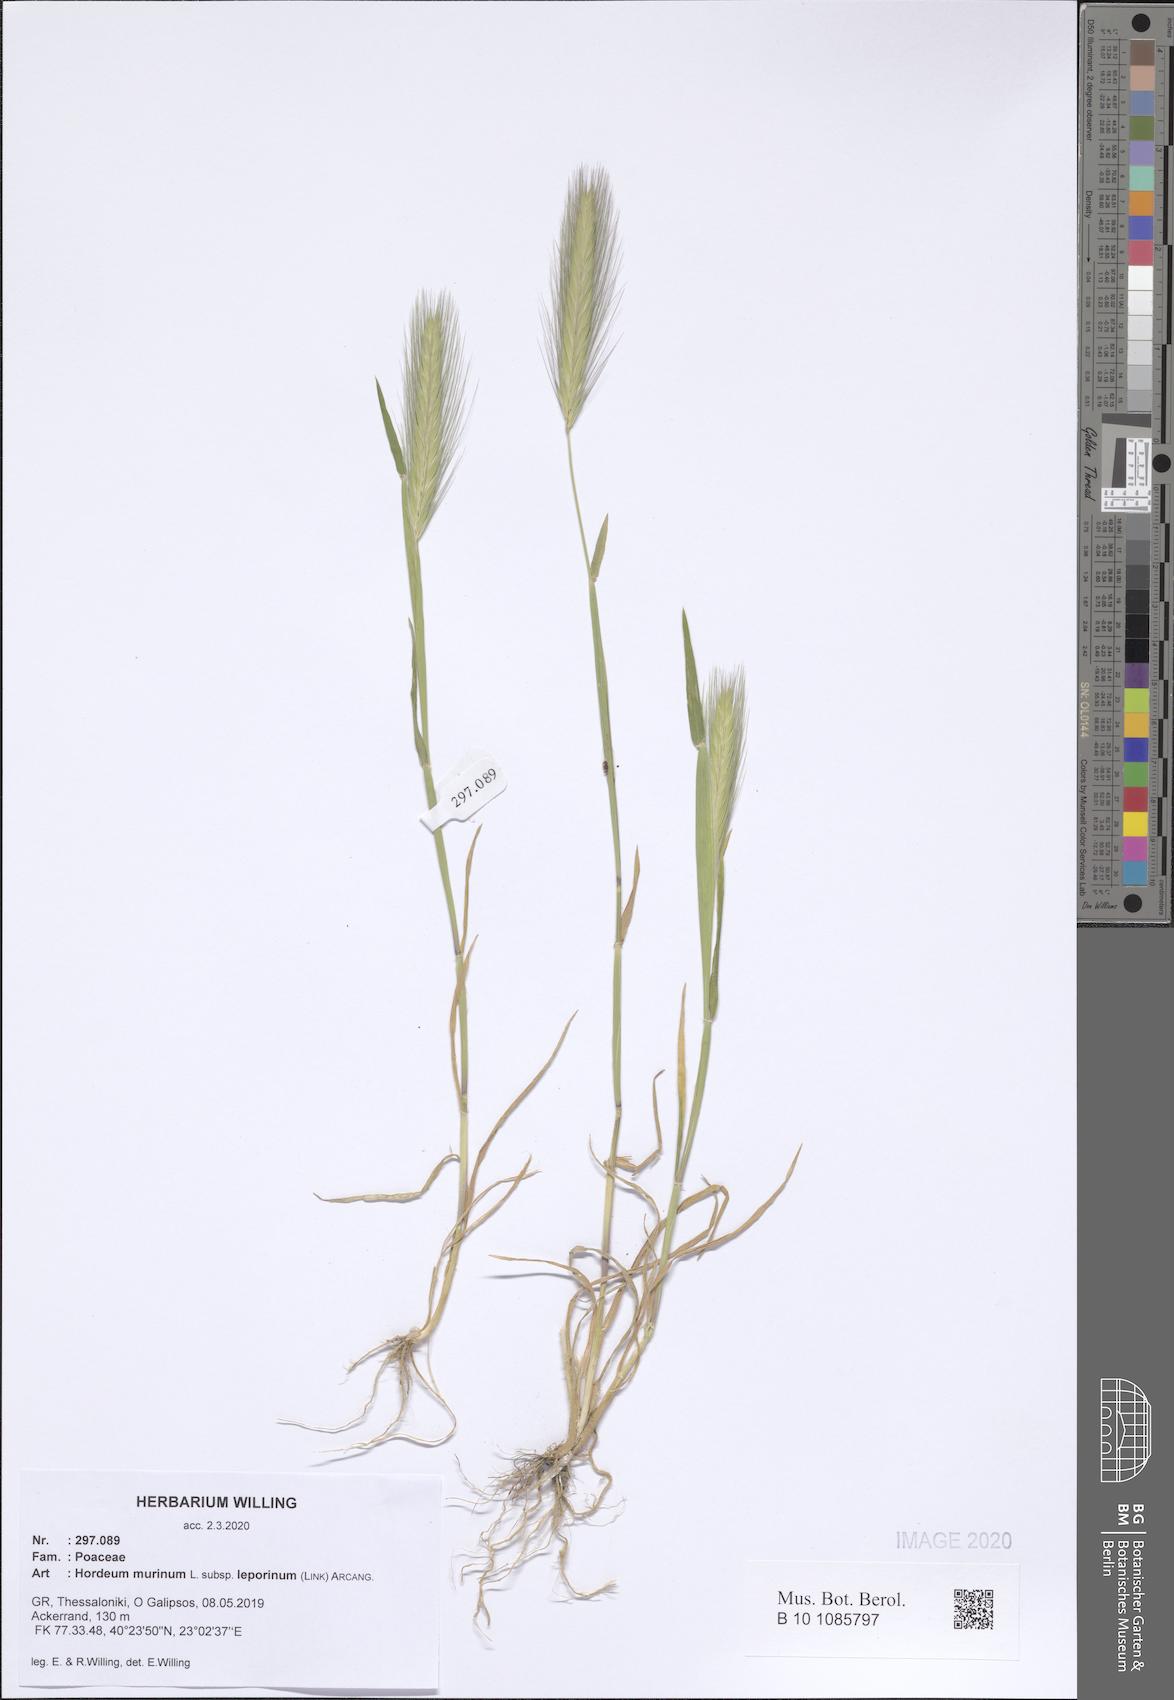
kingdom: Plantae
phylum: Tracheophyta
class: Liliopsida
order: Poales
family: Poaceae
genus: Hordeum
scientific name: Hordeum murinum
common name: Wall barley
